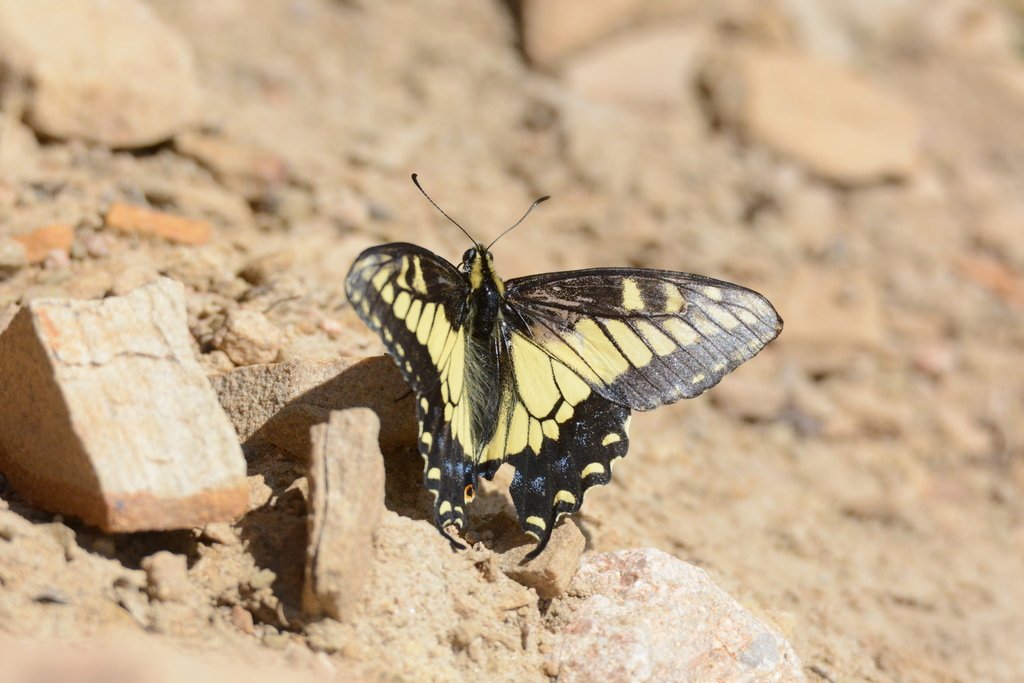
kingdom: Animalia
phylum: Arthropoda
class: Insecta
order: Lepidoptera
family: Papilionidae
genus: Papilio
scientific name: Papilio zelicaon
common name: Anise Swallowtail
